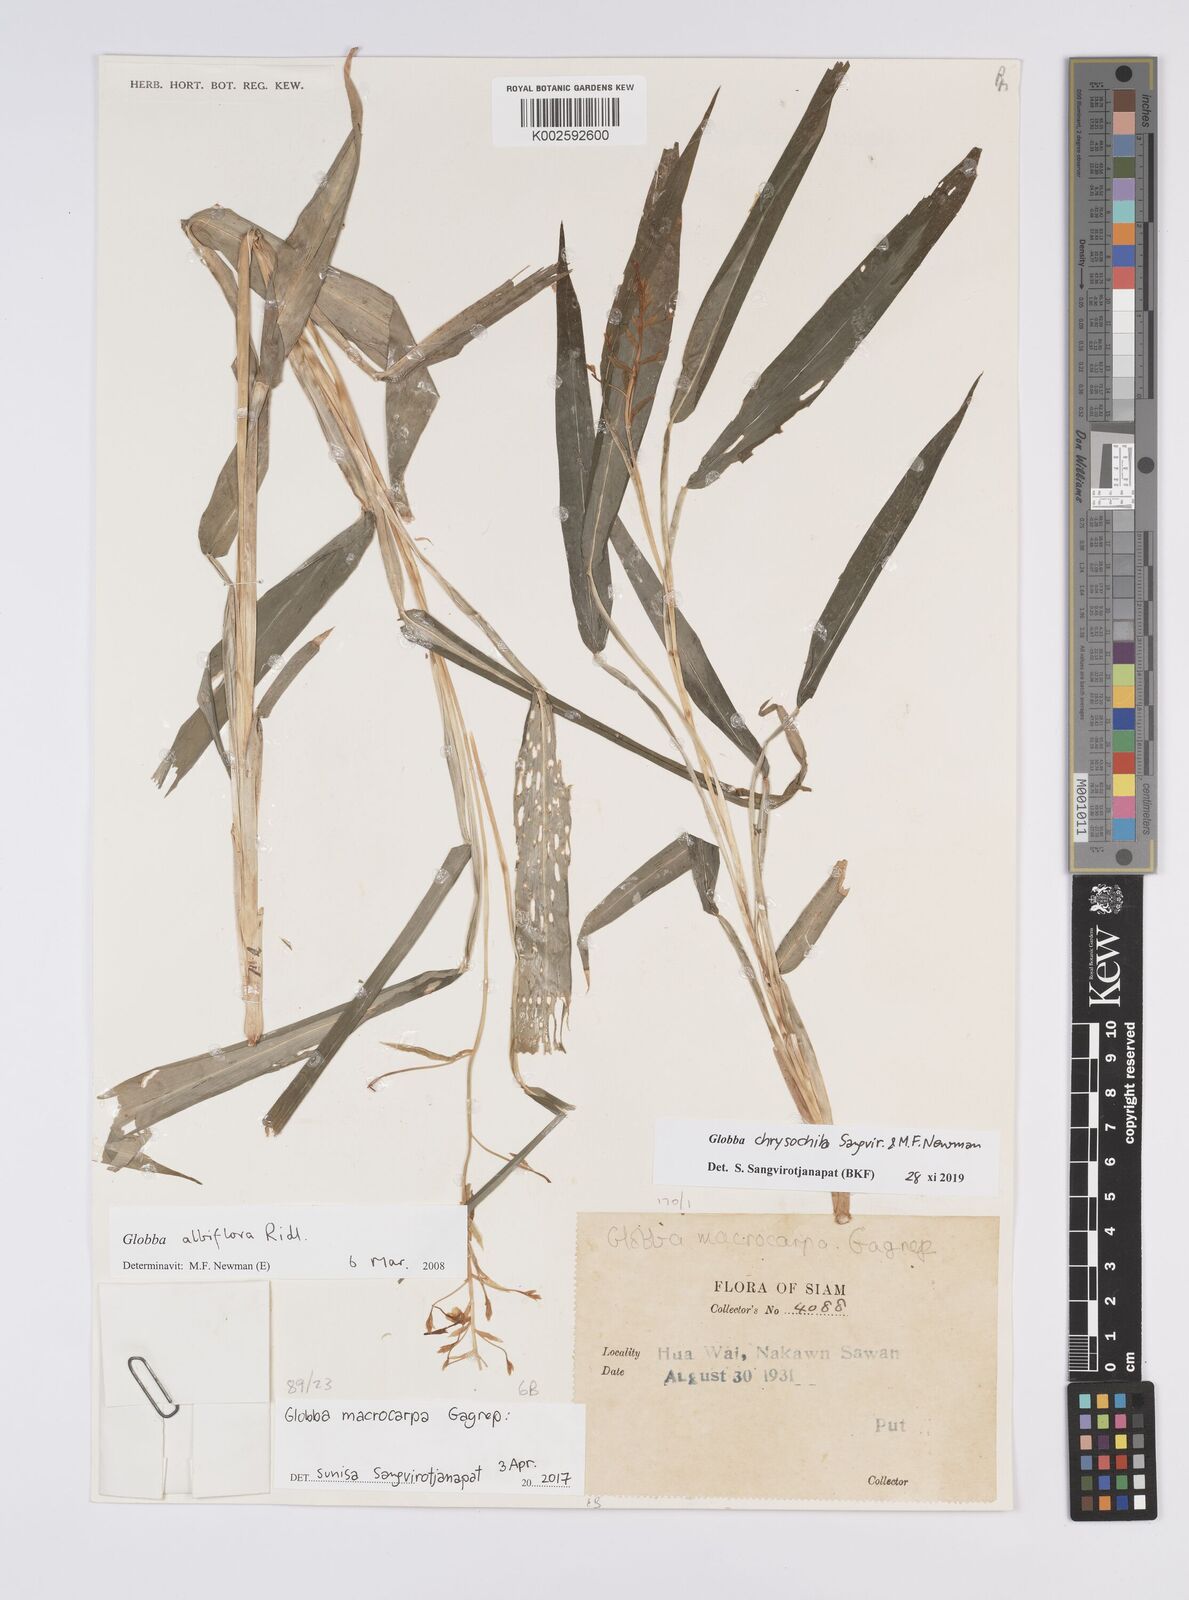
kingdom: Plantae
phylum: Tracheophyta
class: Liliopsida
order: Zingiberales
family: Zingiberaceae
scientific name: Zingiberaceae
